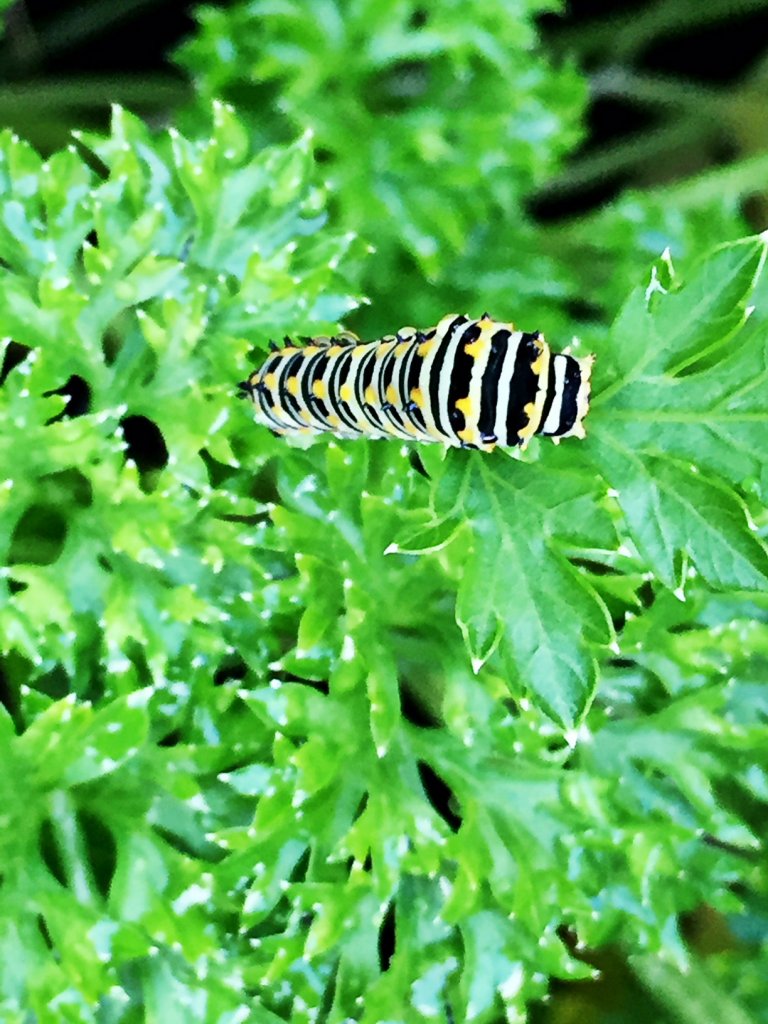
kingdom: Animalia
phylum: Arthropoda
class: Insecta
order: Lepidoptera
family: Papilionidae
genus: Papilio
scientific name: Papilio polyxenes
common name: Black Swallowtail
